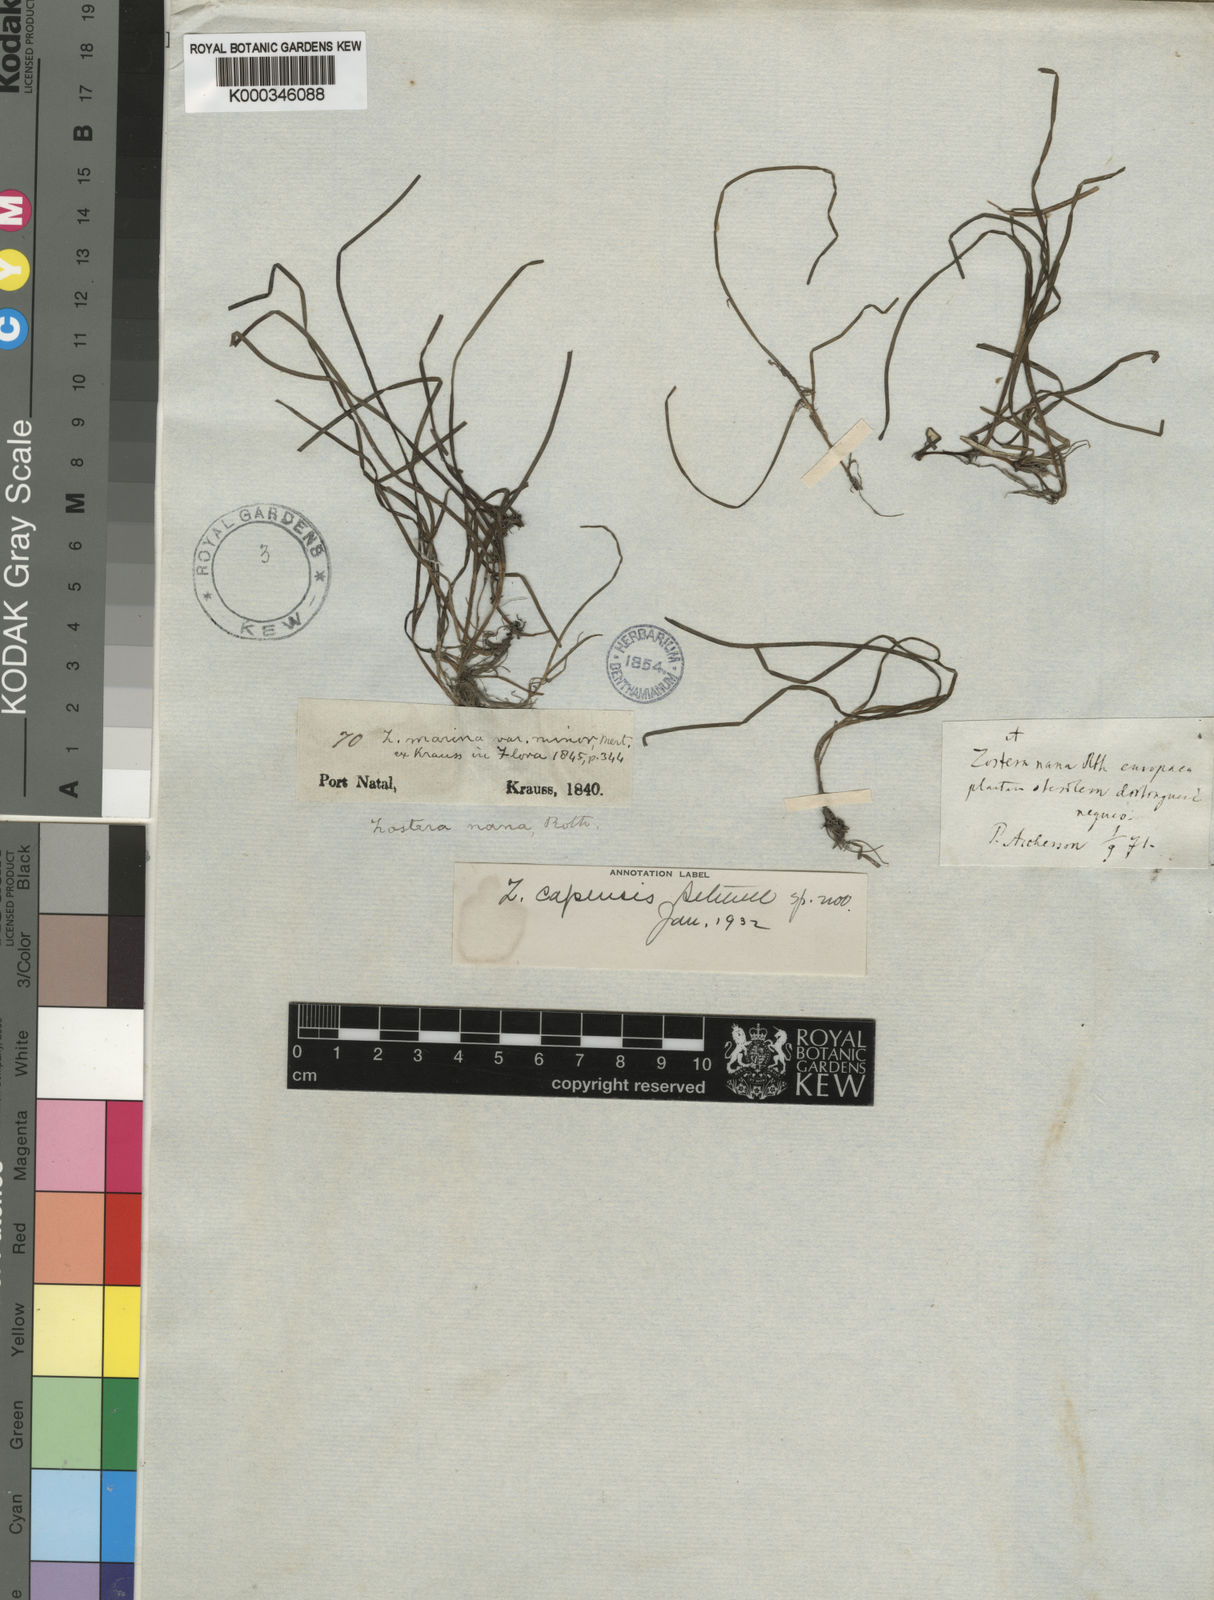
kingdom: Plantae
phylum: Tracheophyta
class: Liliopsida
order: Alismatales
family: Zosteraceae
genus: Zostera
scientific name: Zostera capensis
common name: Species code: zp
